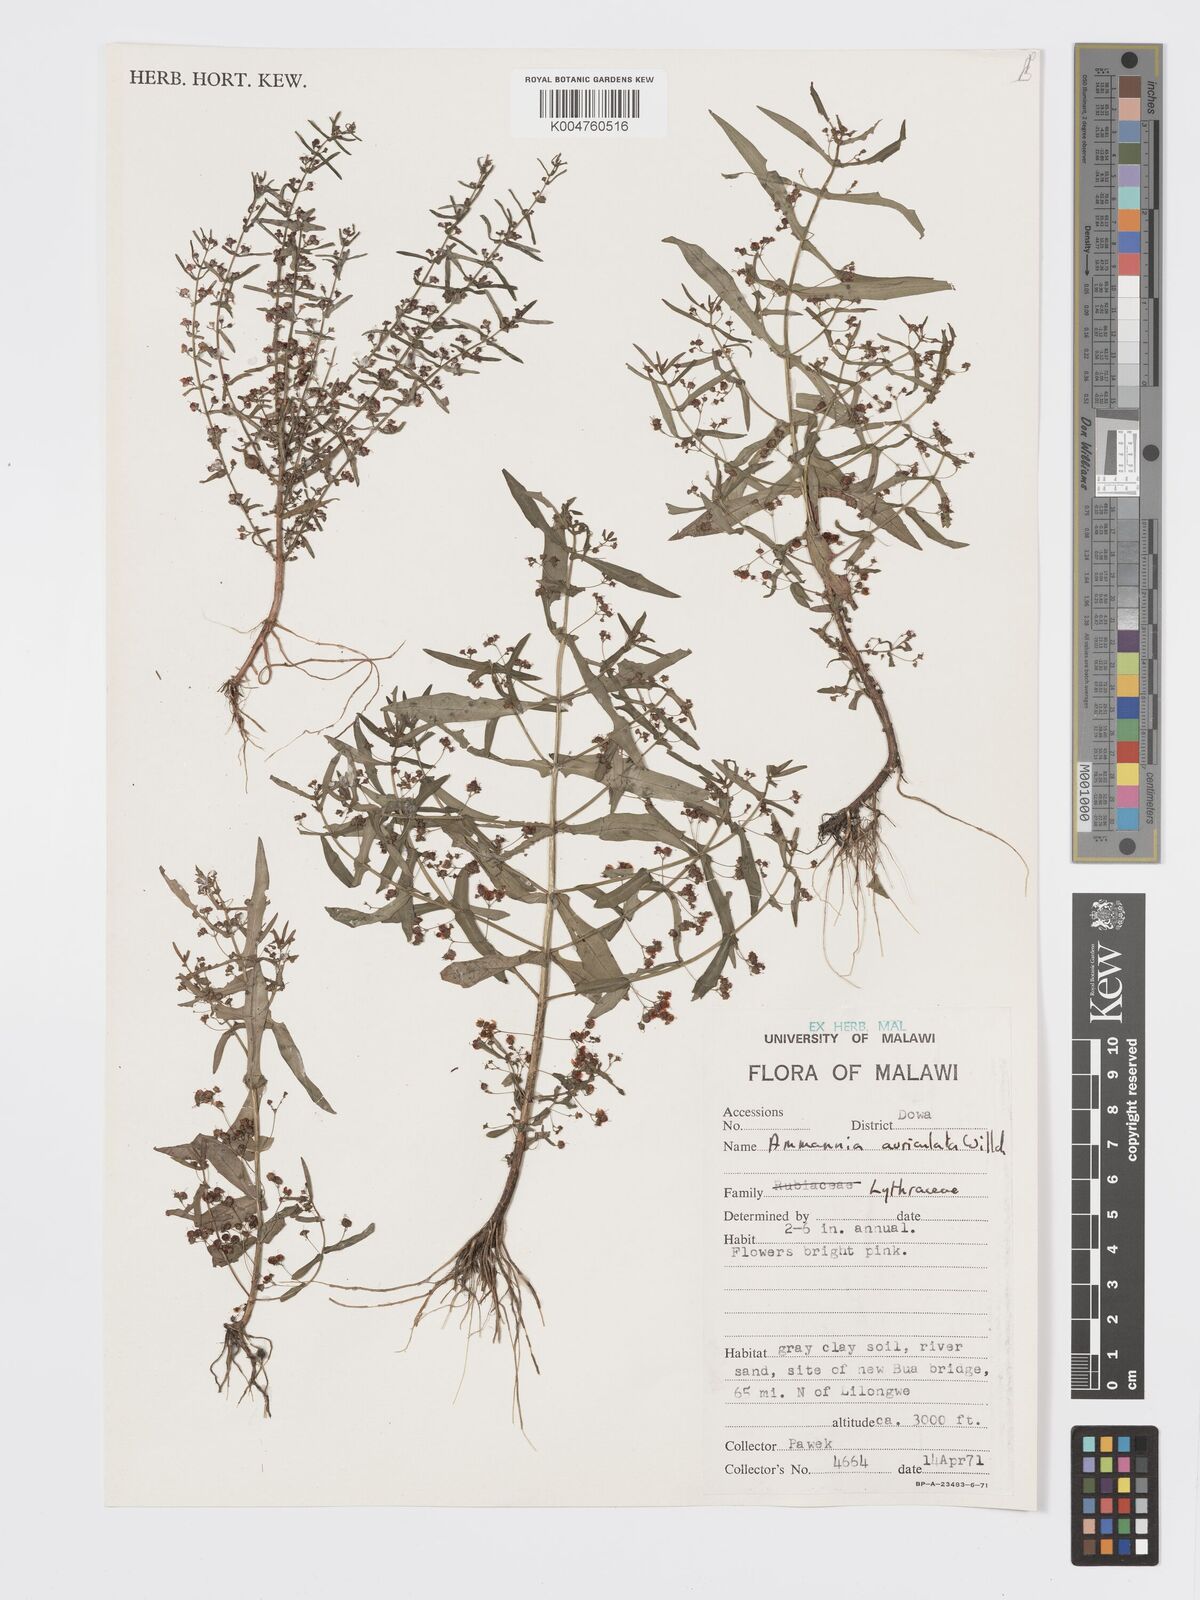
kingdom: Plantae
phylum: Tracheophyta
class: Magnoliopsida
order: Myrtales
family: Lythraceae
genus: Ammannia
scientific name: Ammannia auriculata
